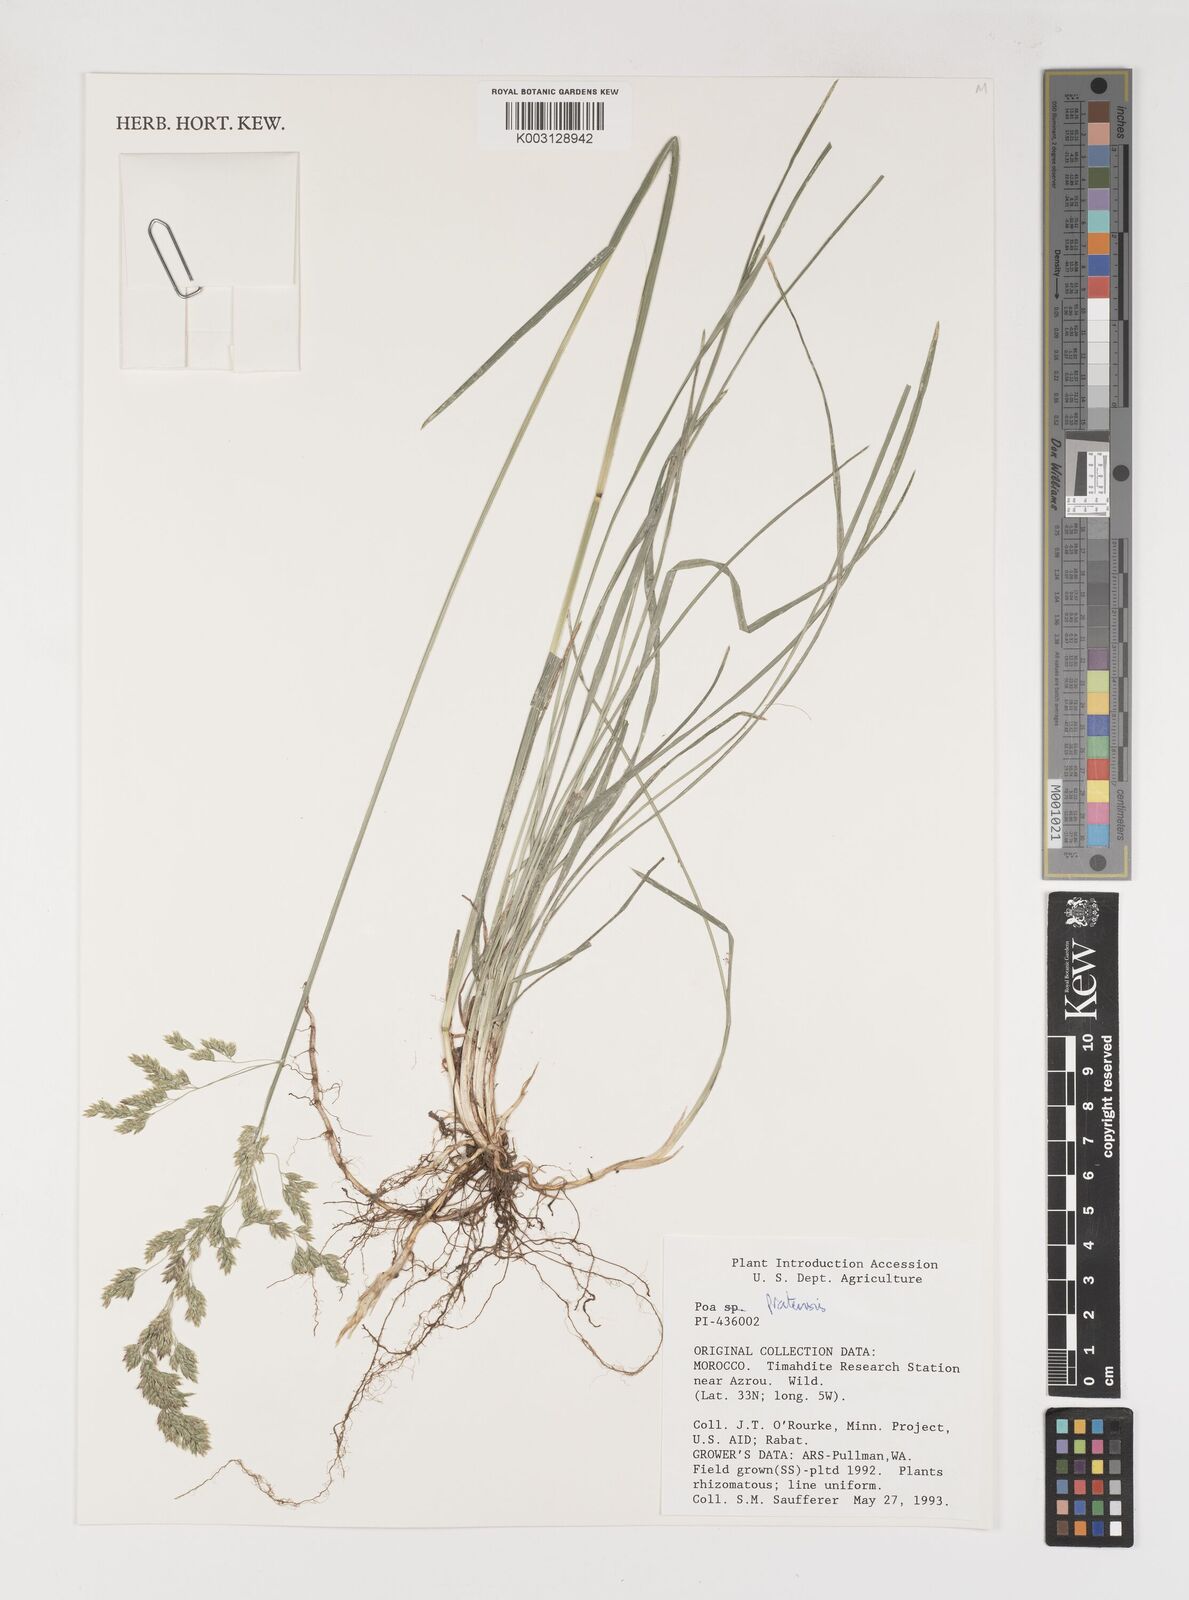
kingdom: Plantae
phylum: Tracheophyta
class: Liliopsida
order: Poales
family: Poaceae
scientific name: Poaceae
